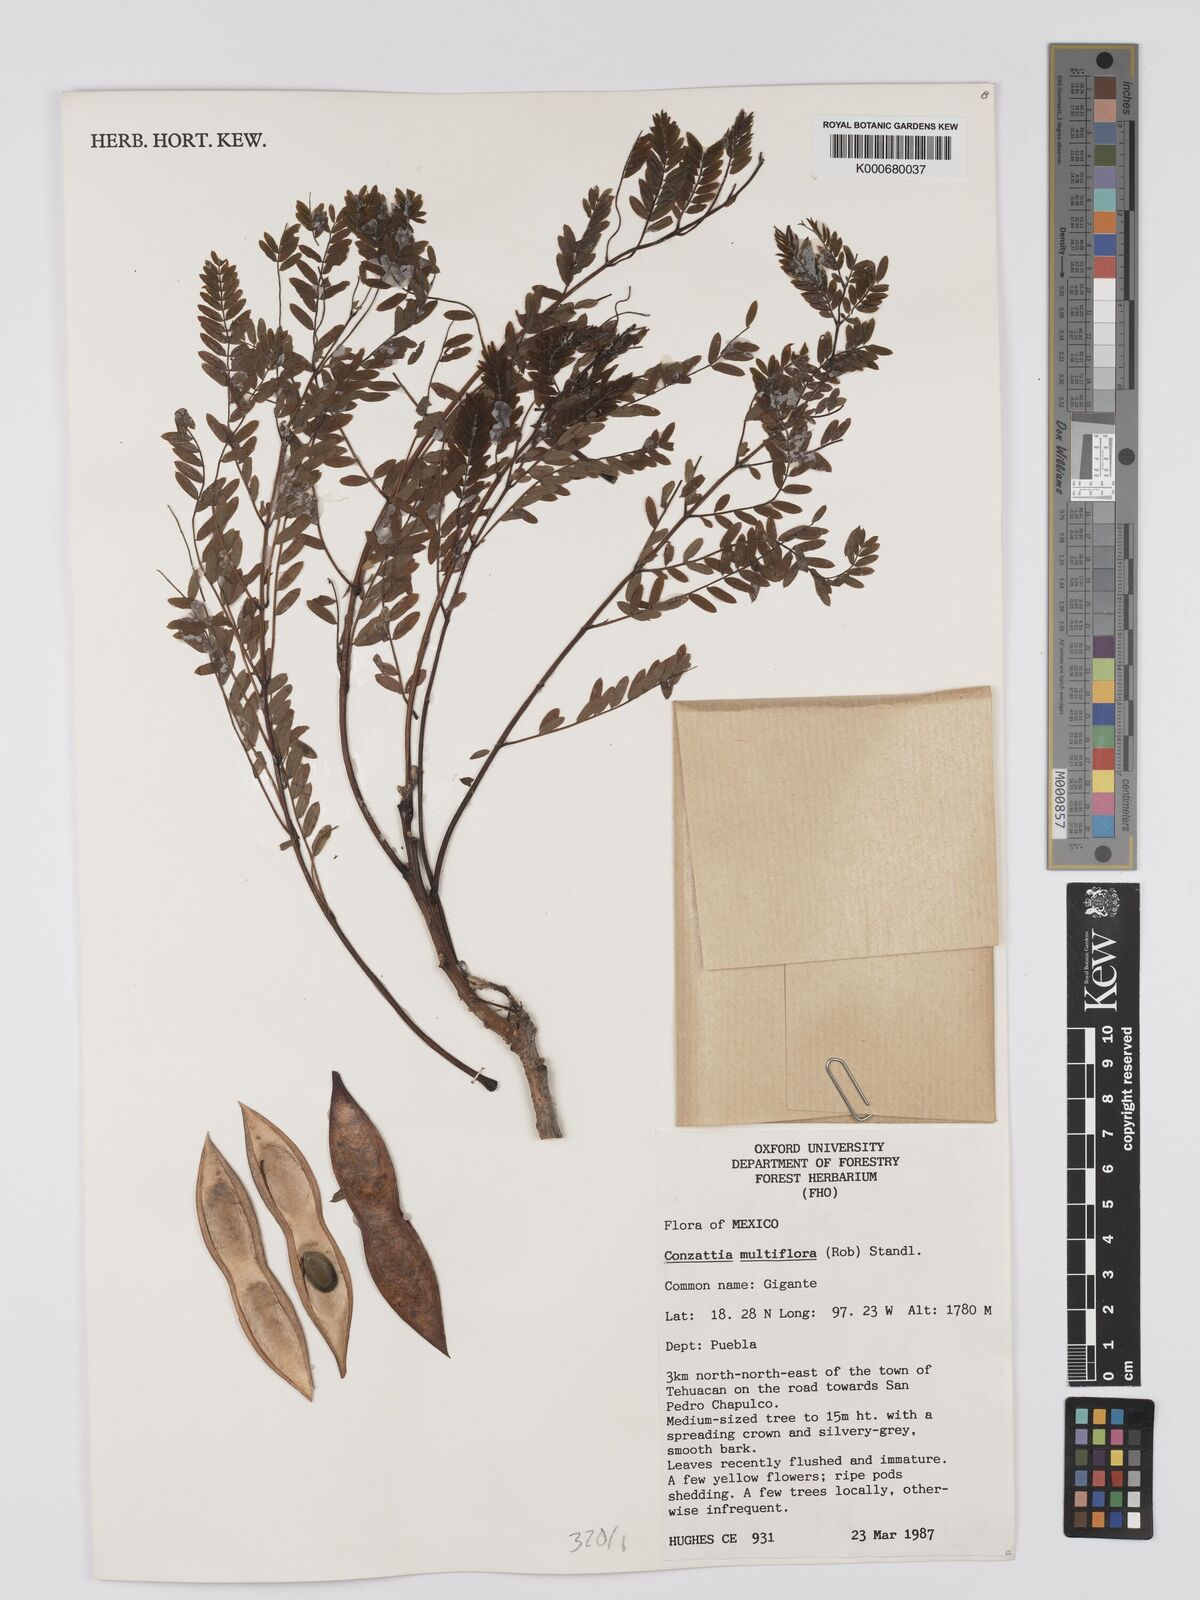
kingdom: Plantae
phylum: Tracheophyta
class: Magnoliopsida
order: Fabales
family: Fabaceae
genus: Conzattia
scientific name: Conzattia multiflora
